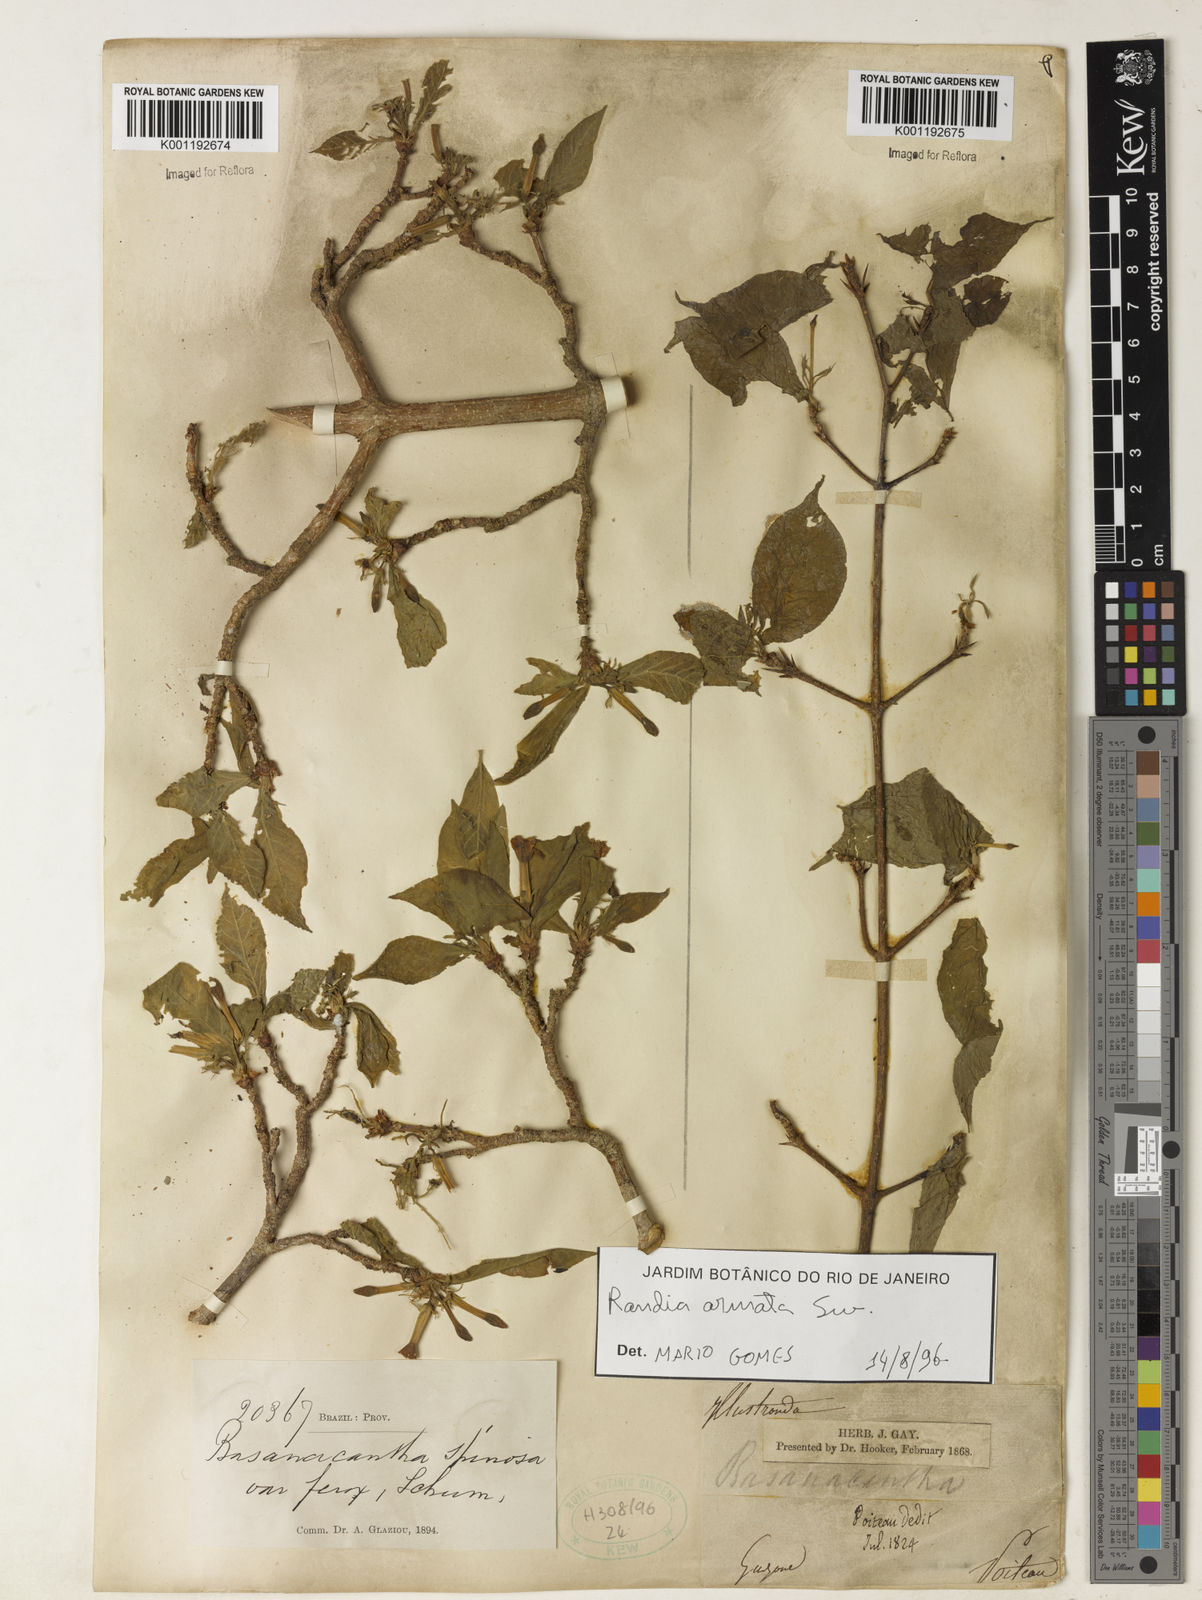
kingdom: Plantae
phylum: Tracheophyta
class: Magnoliopsida
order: Gentianales
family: Rubiaceae
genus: Randia
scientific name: Randia armata
